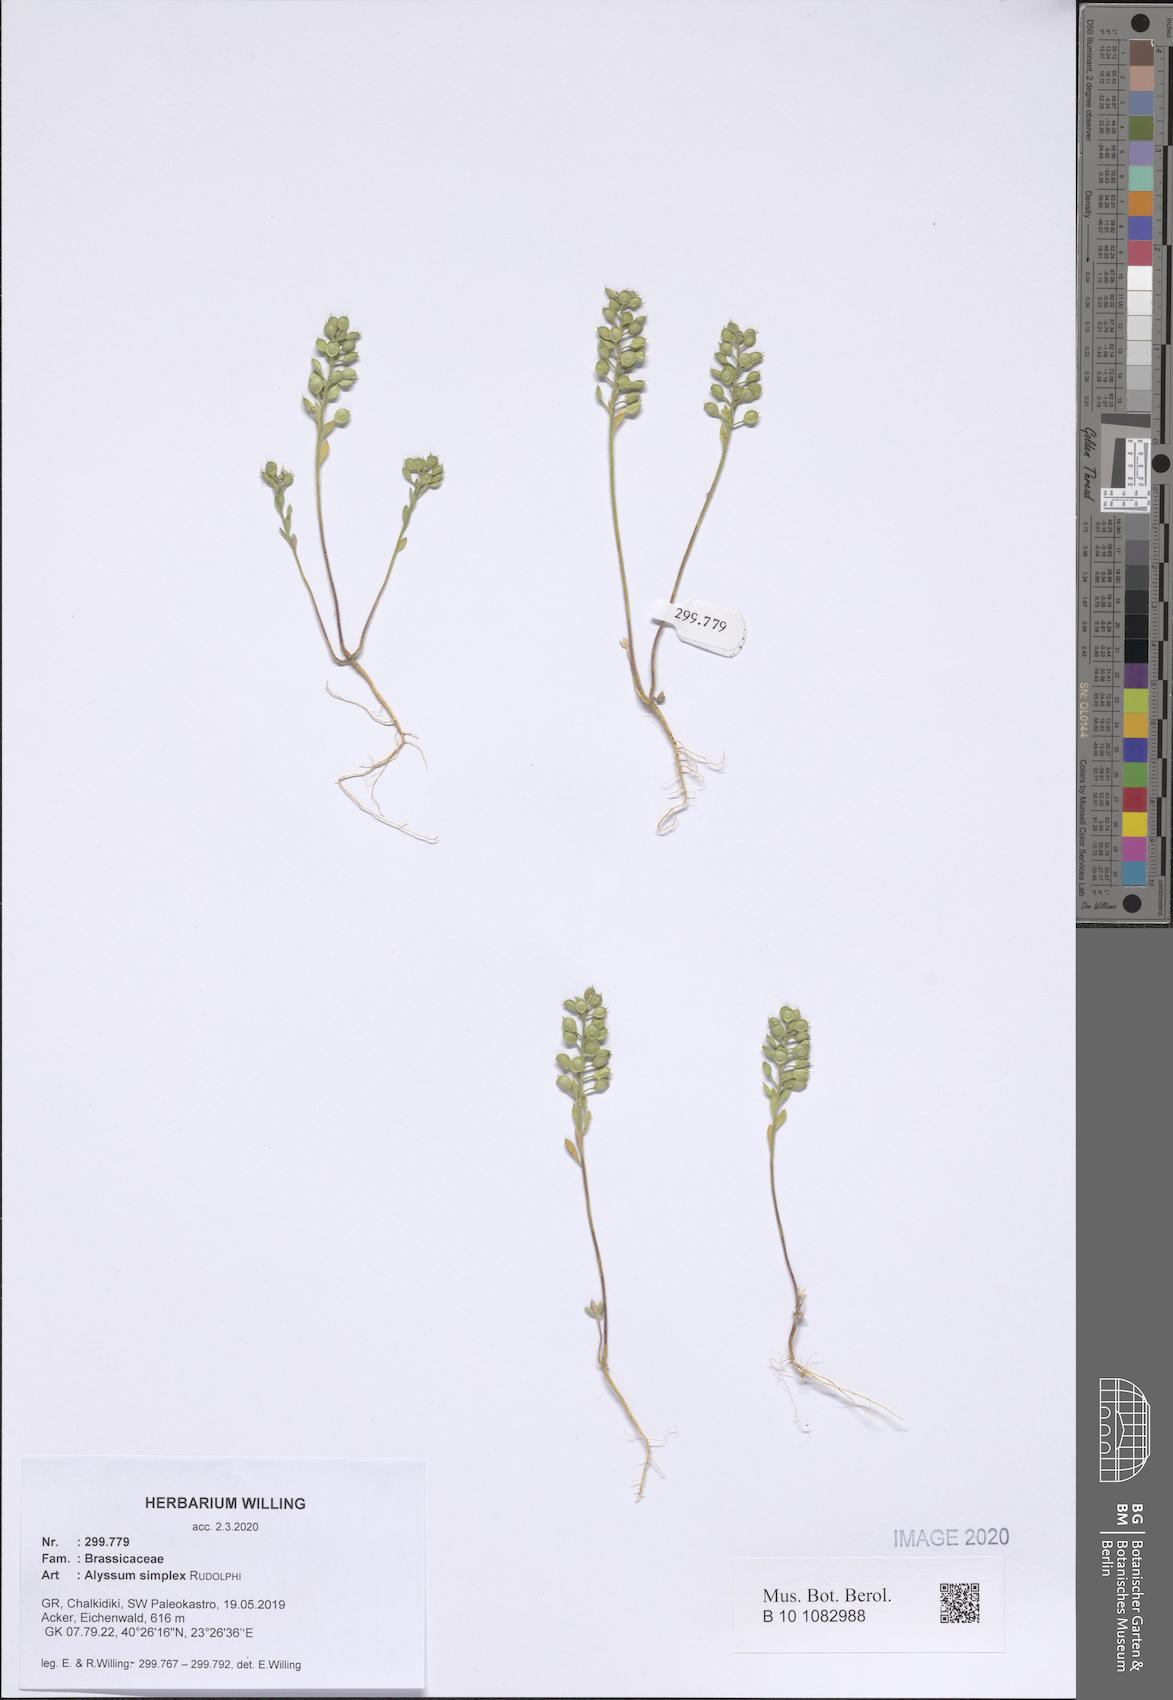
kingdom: Plantae
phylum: Tracheophyta
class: Magnoliopsida
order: Brassicales
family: Brassicaceae
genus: Alyssum
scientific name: Alyssum simplex
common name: Alyssum
